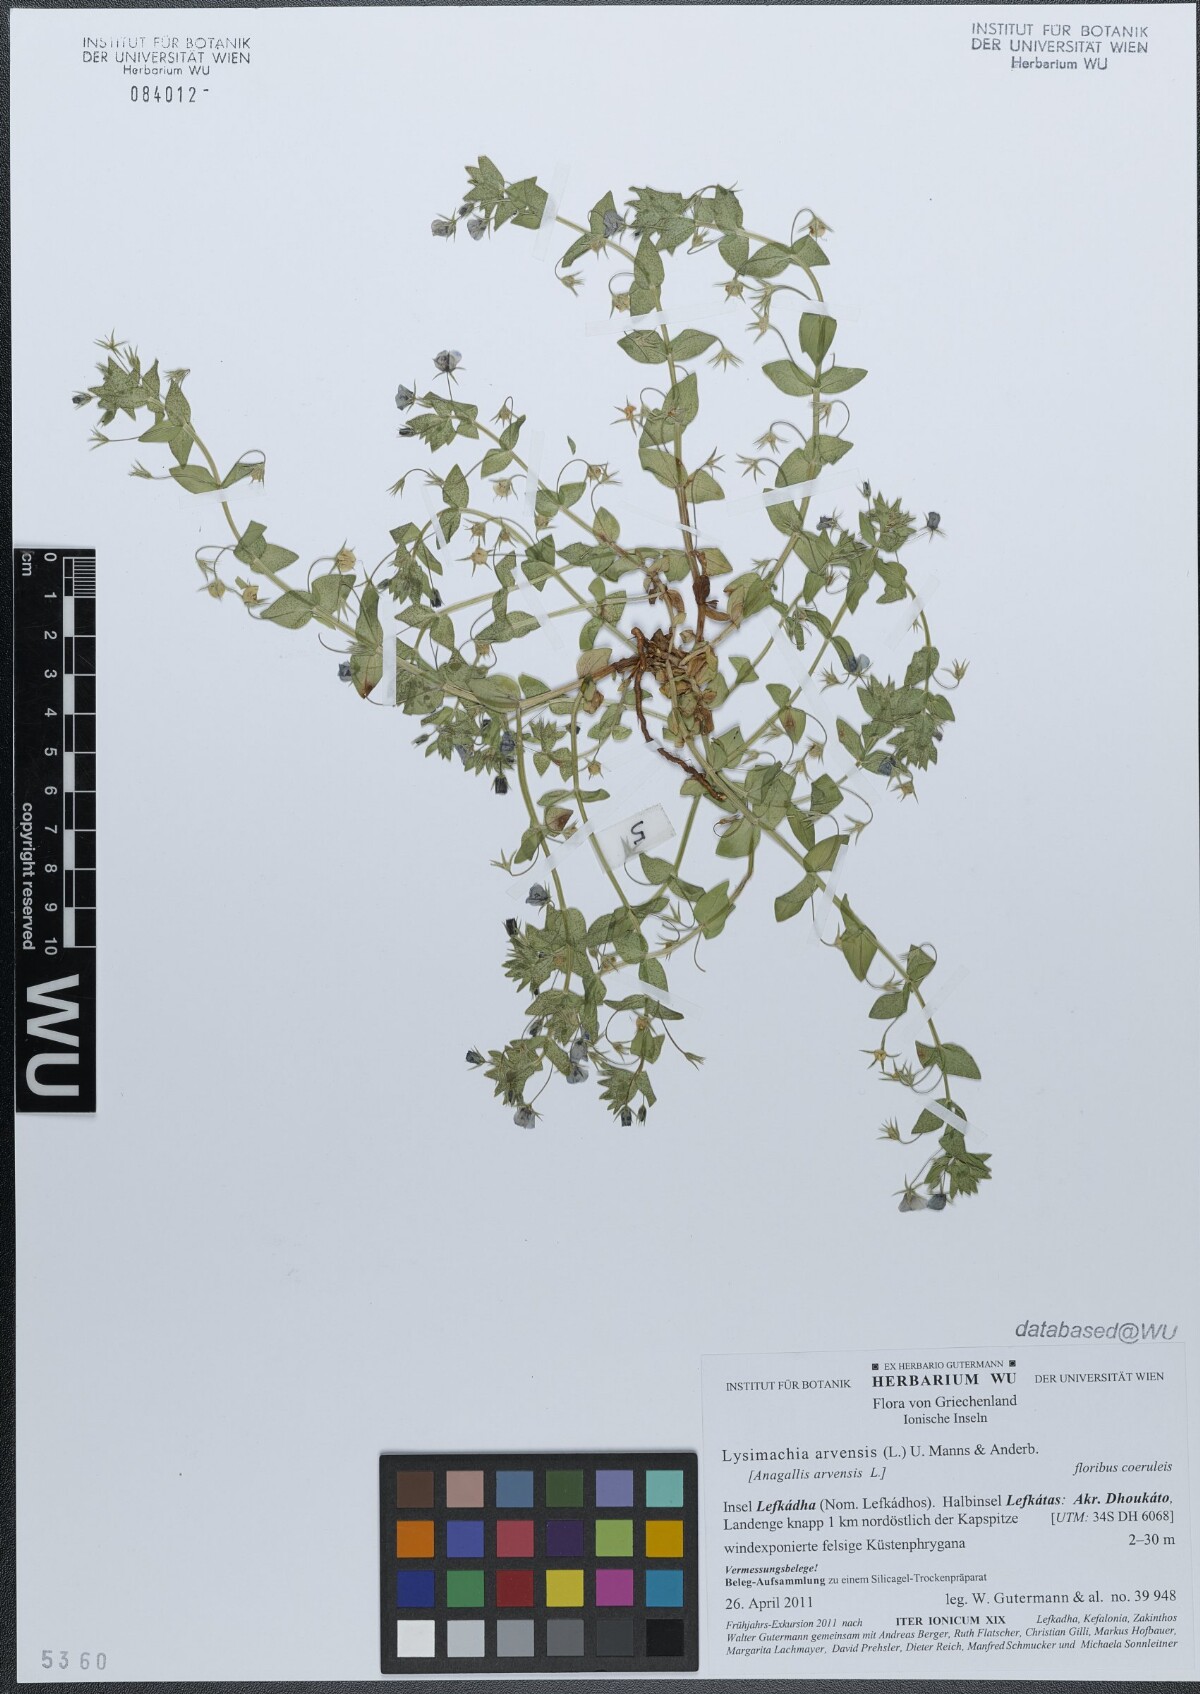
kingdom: Plantae
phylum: Tracheophyta
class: Magnoliopsida
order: Ericales
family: Primulaceae
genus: Lysimachia
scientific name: Lysimachia arvensis
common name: Scarlet pimpernel
